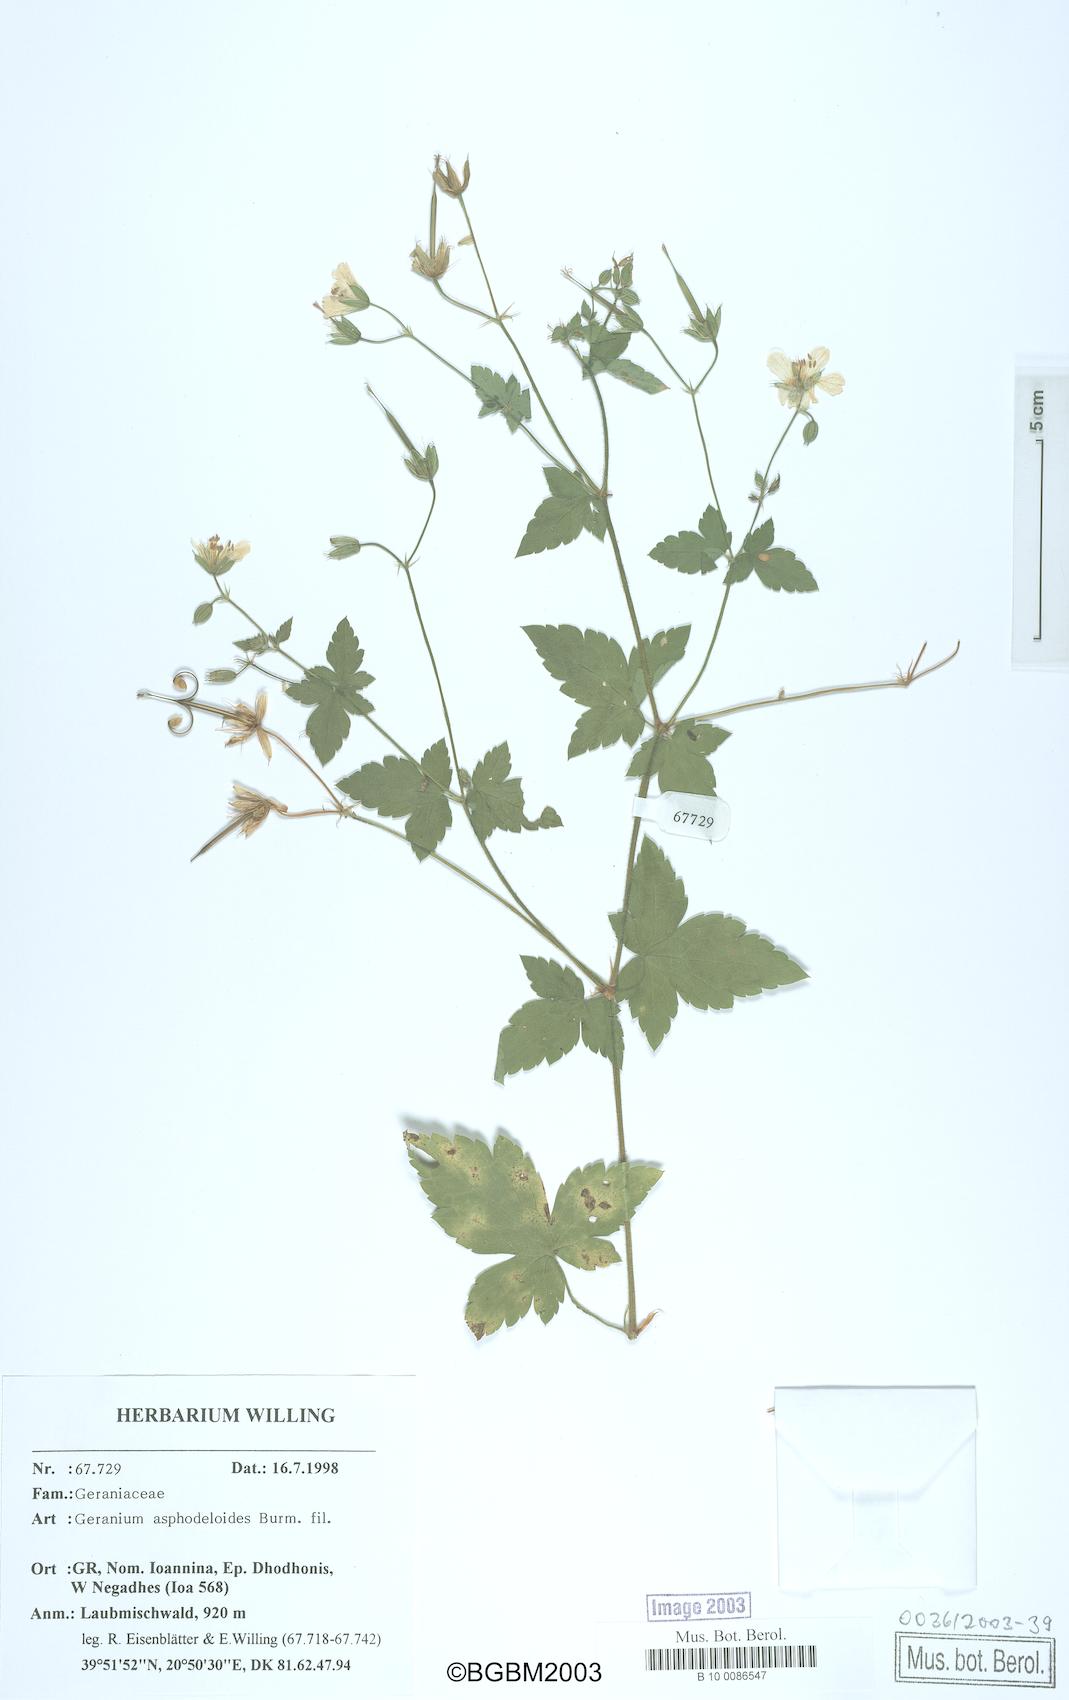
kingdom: Plantae
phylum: Tracheophyta
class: Magnoliopsida
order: Geraniales
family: Geraniaceae
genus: Geranium
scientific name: Geranium asphodeloides
